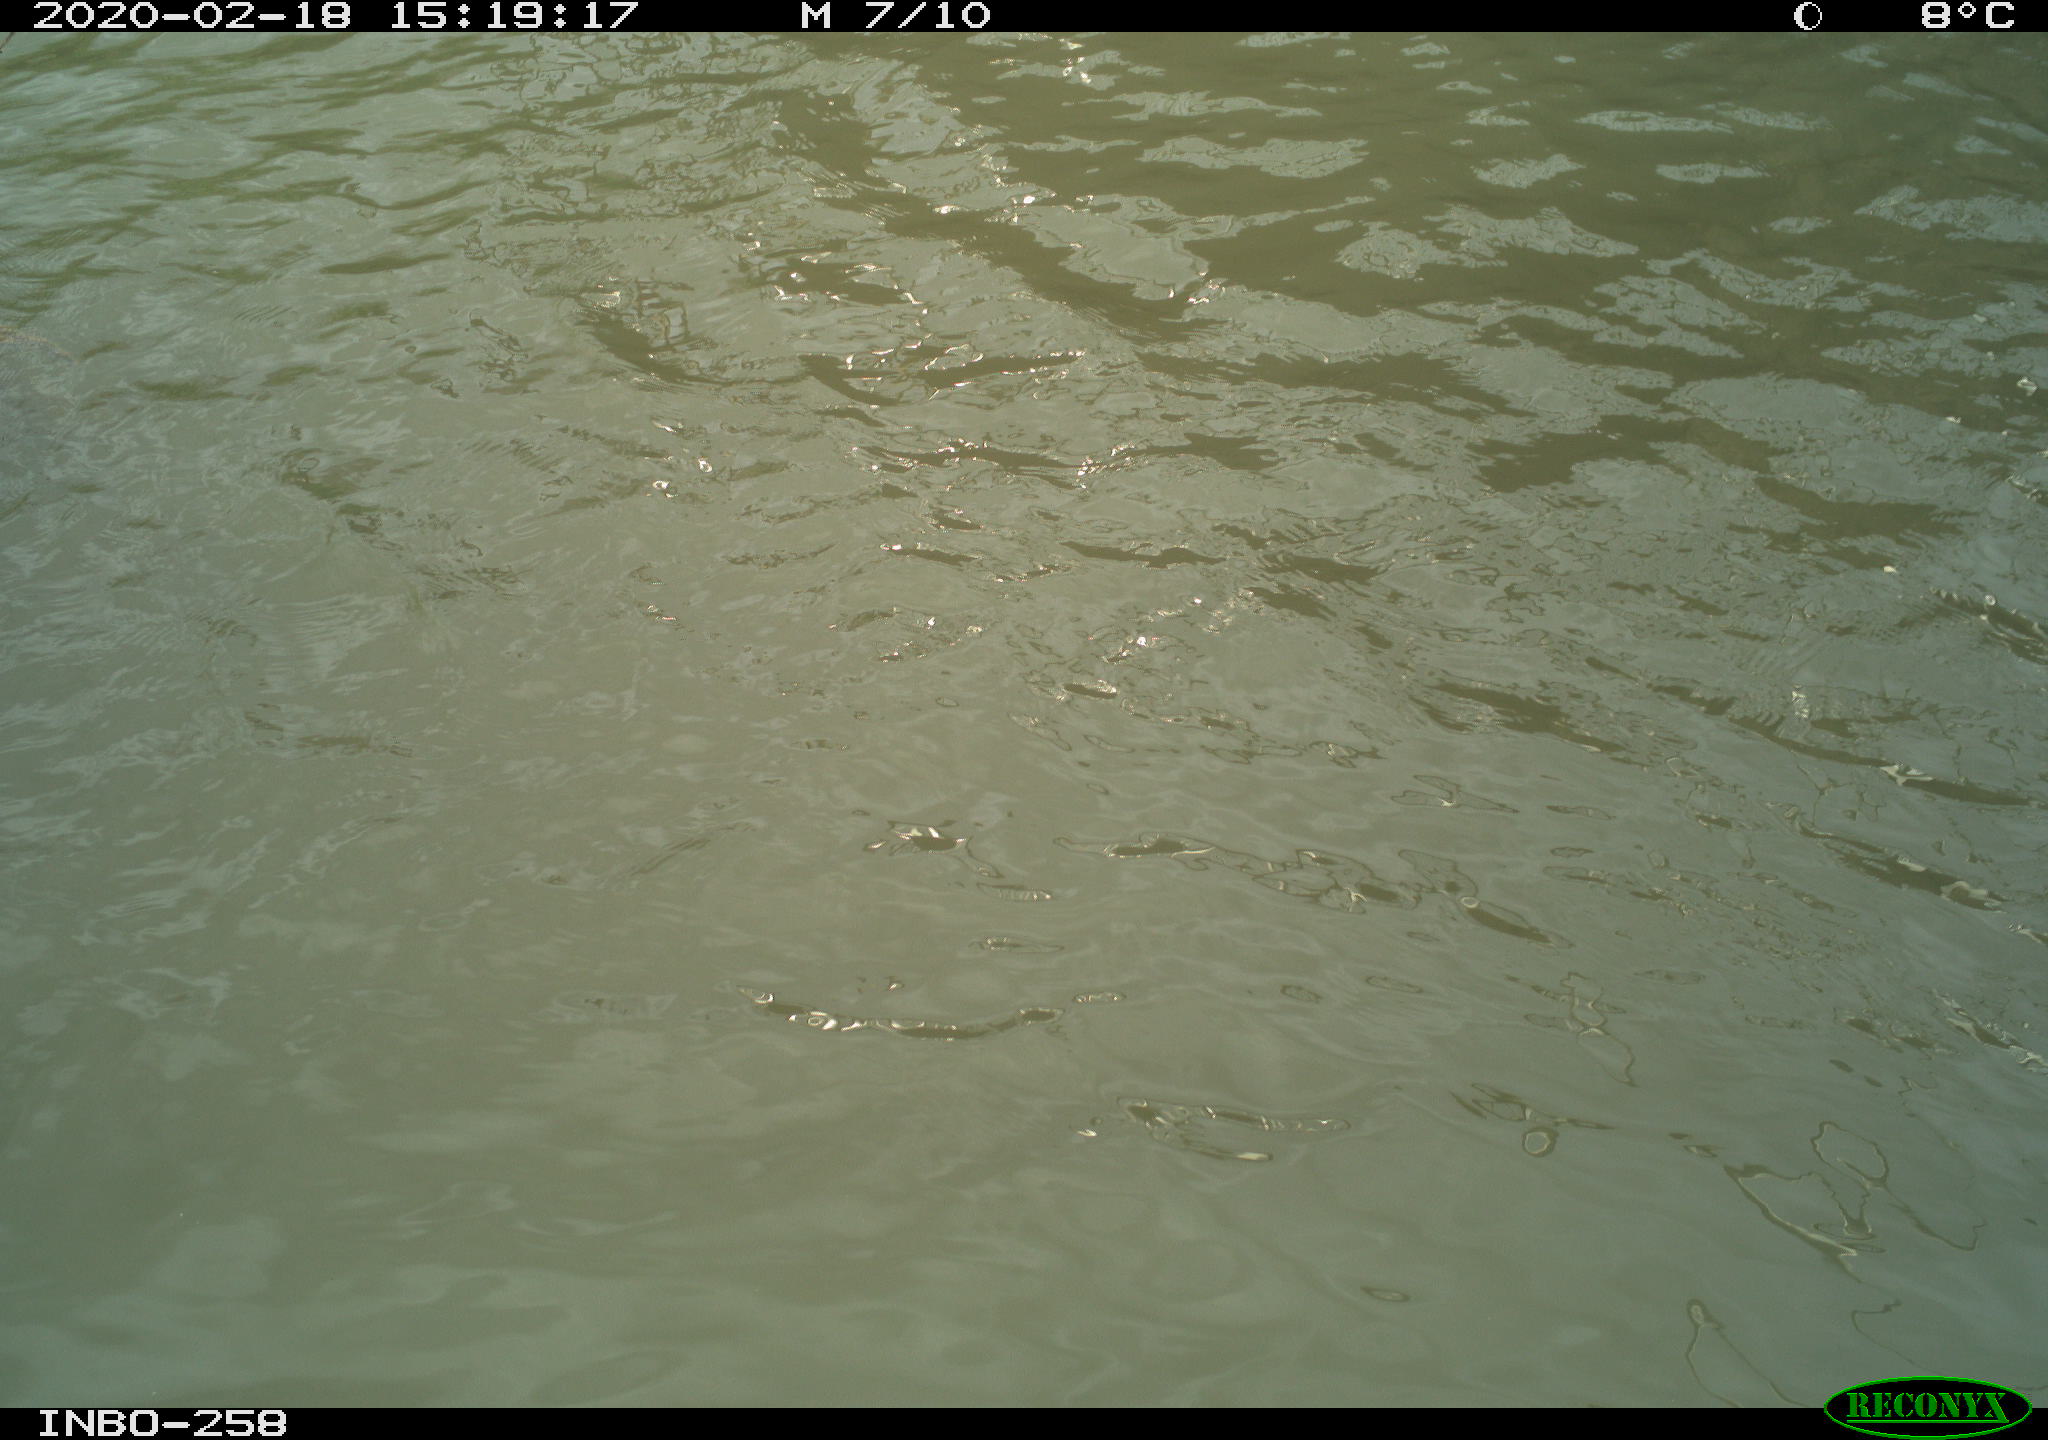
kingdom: Animalia
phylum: Chordata
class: Aves
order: Anseriformes
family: Anatidae
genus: Anas
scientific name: Anas platyrhynchos
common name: Mallard
